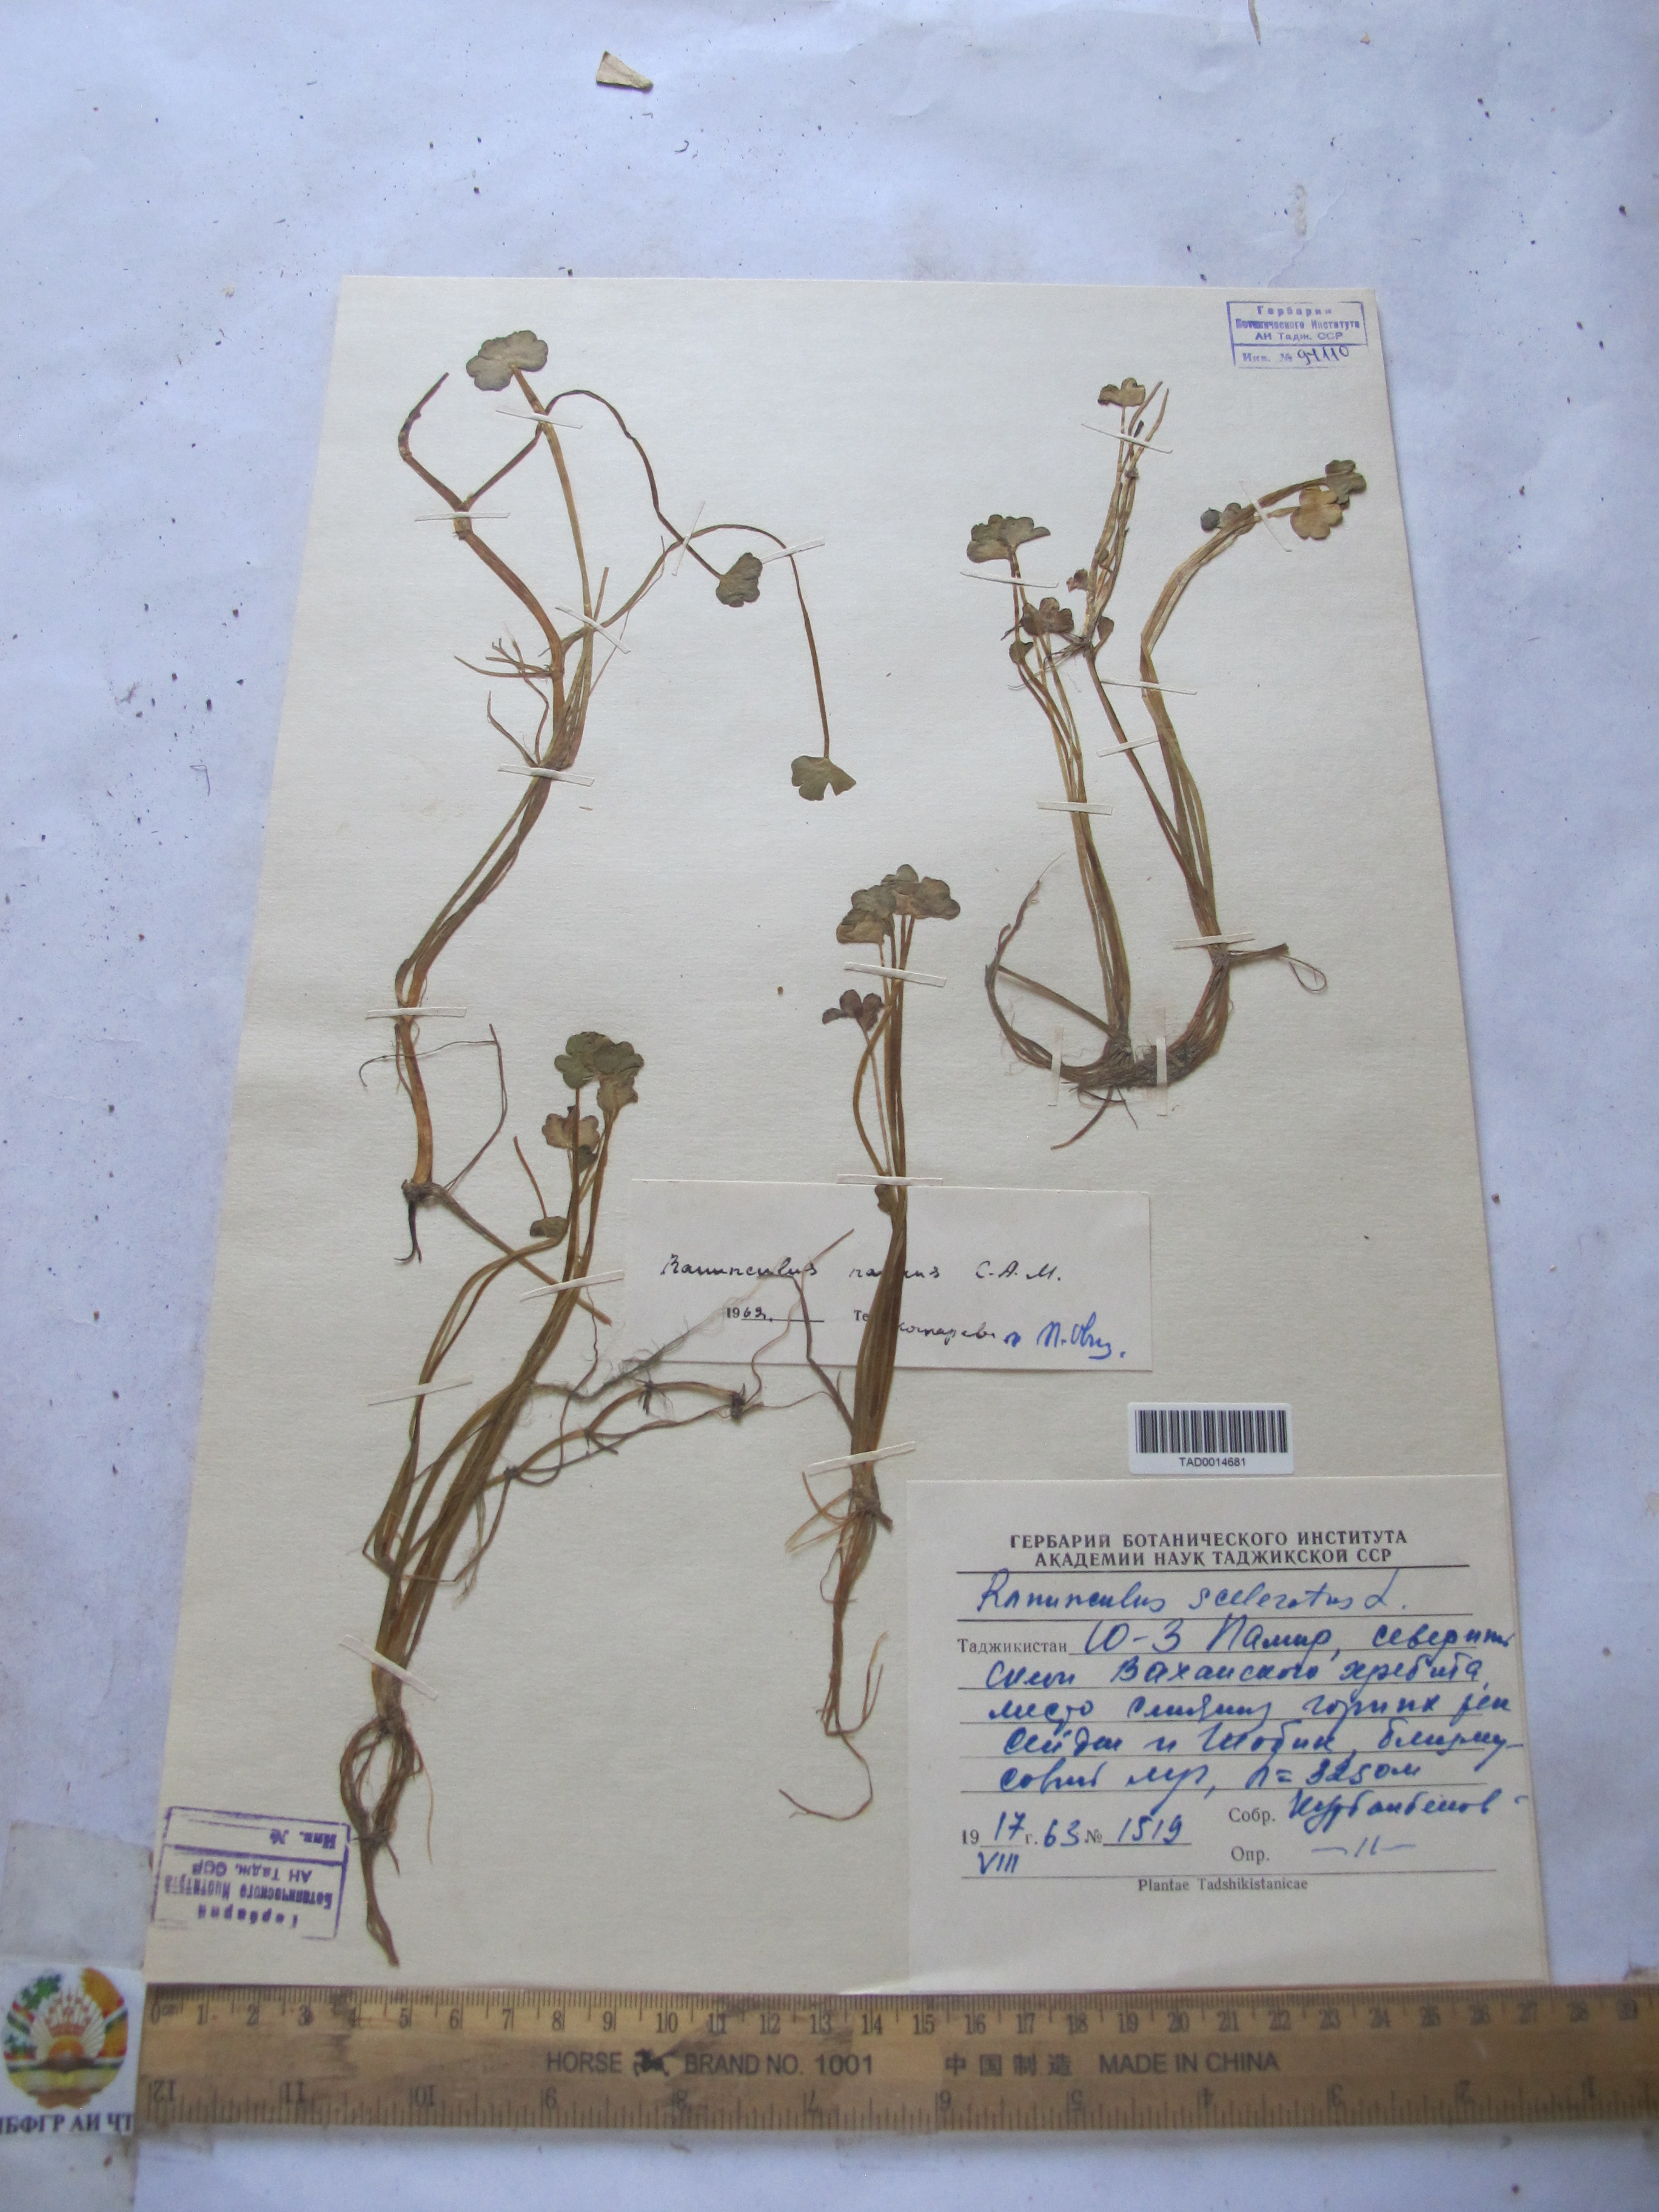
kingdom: Plantae
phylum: Tracheophyta
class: Magnoliopsida
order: Ranunculales
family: Ranunculaceae
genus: Ranunculus
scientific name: Ranunculus sceleratus
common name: Celery-leaved buttercup
